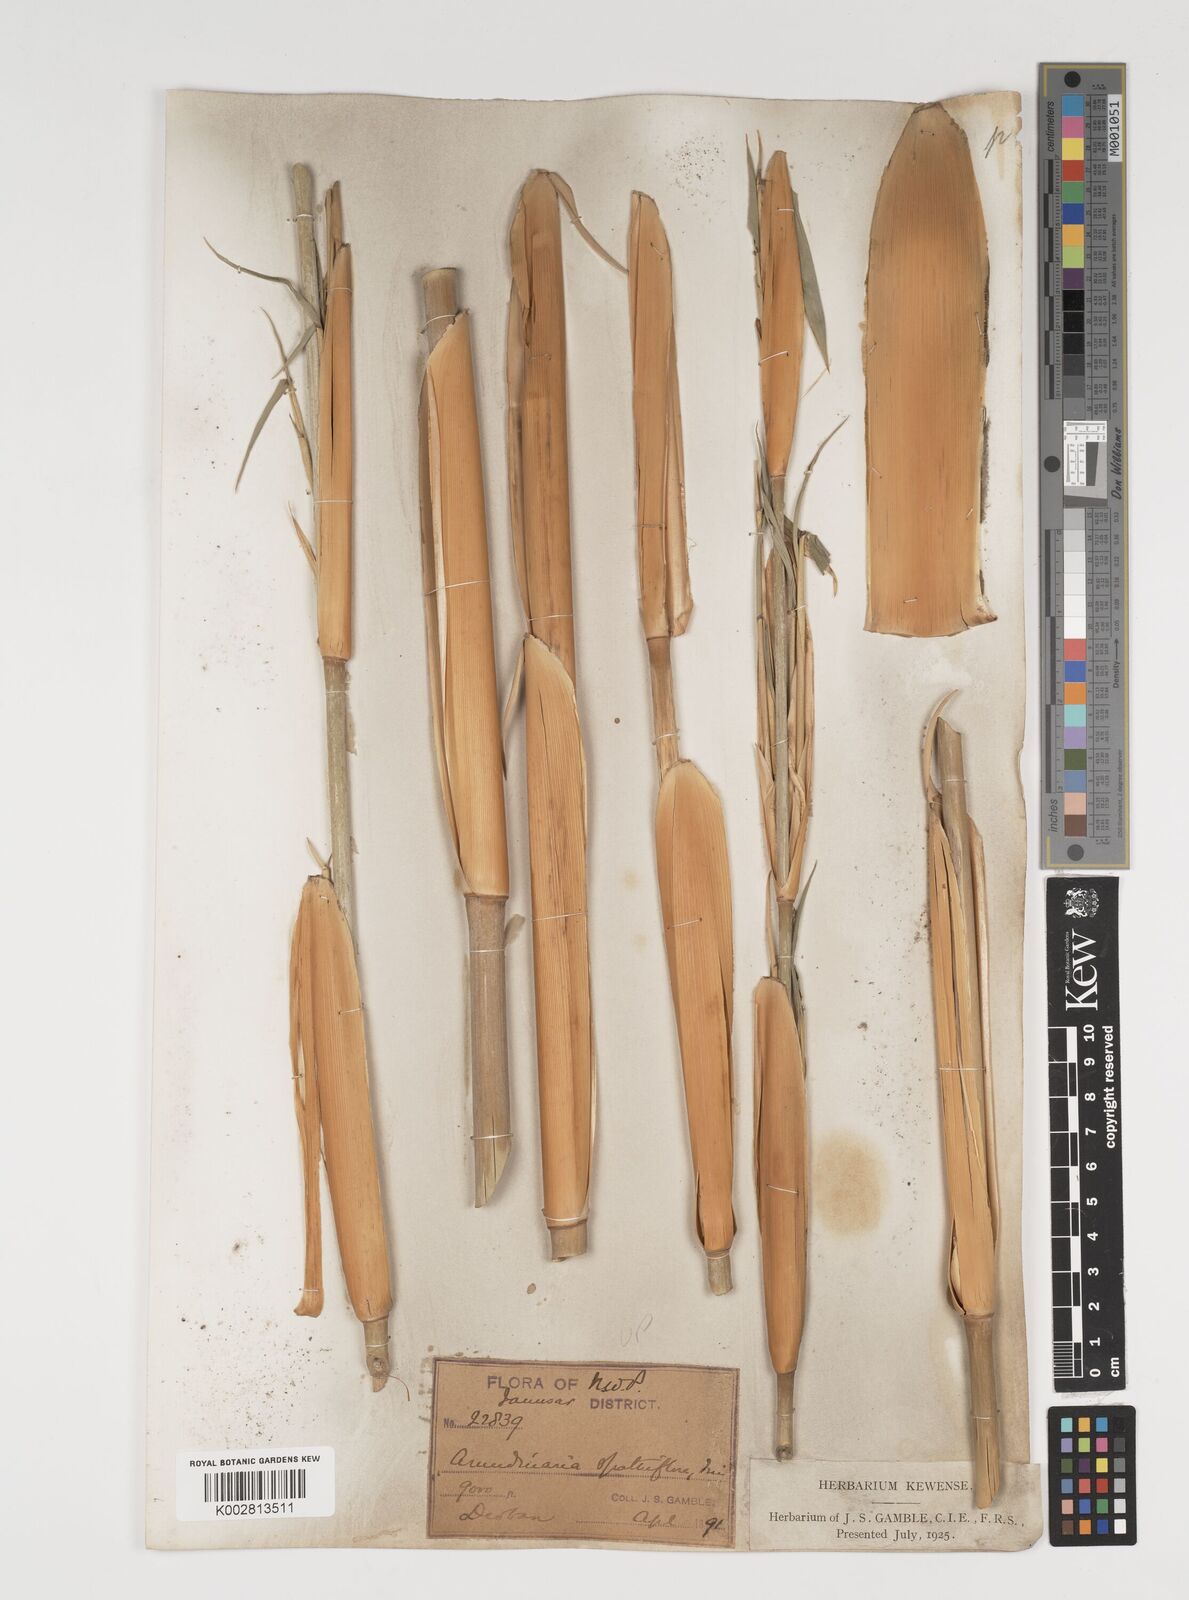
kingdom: Plantae
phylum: Tracheophyta
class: Liliopsida
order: Poales
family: Poaceae
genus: Thamnocalamus
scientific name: Thamnocalamus spathiflorus
